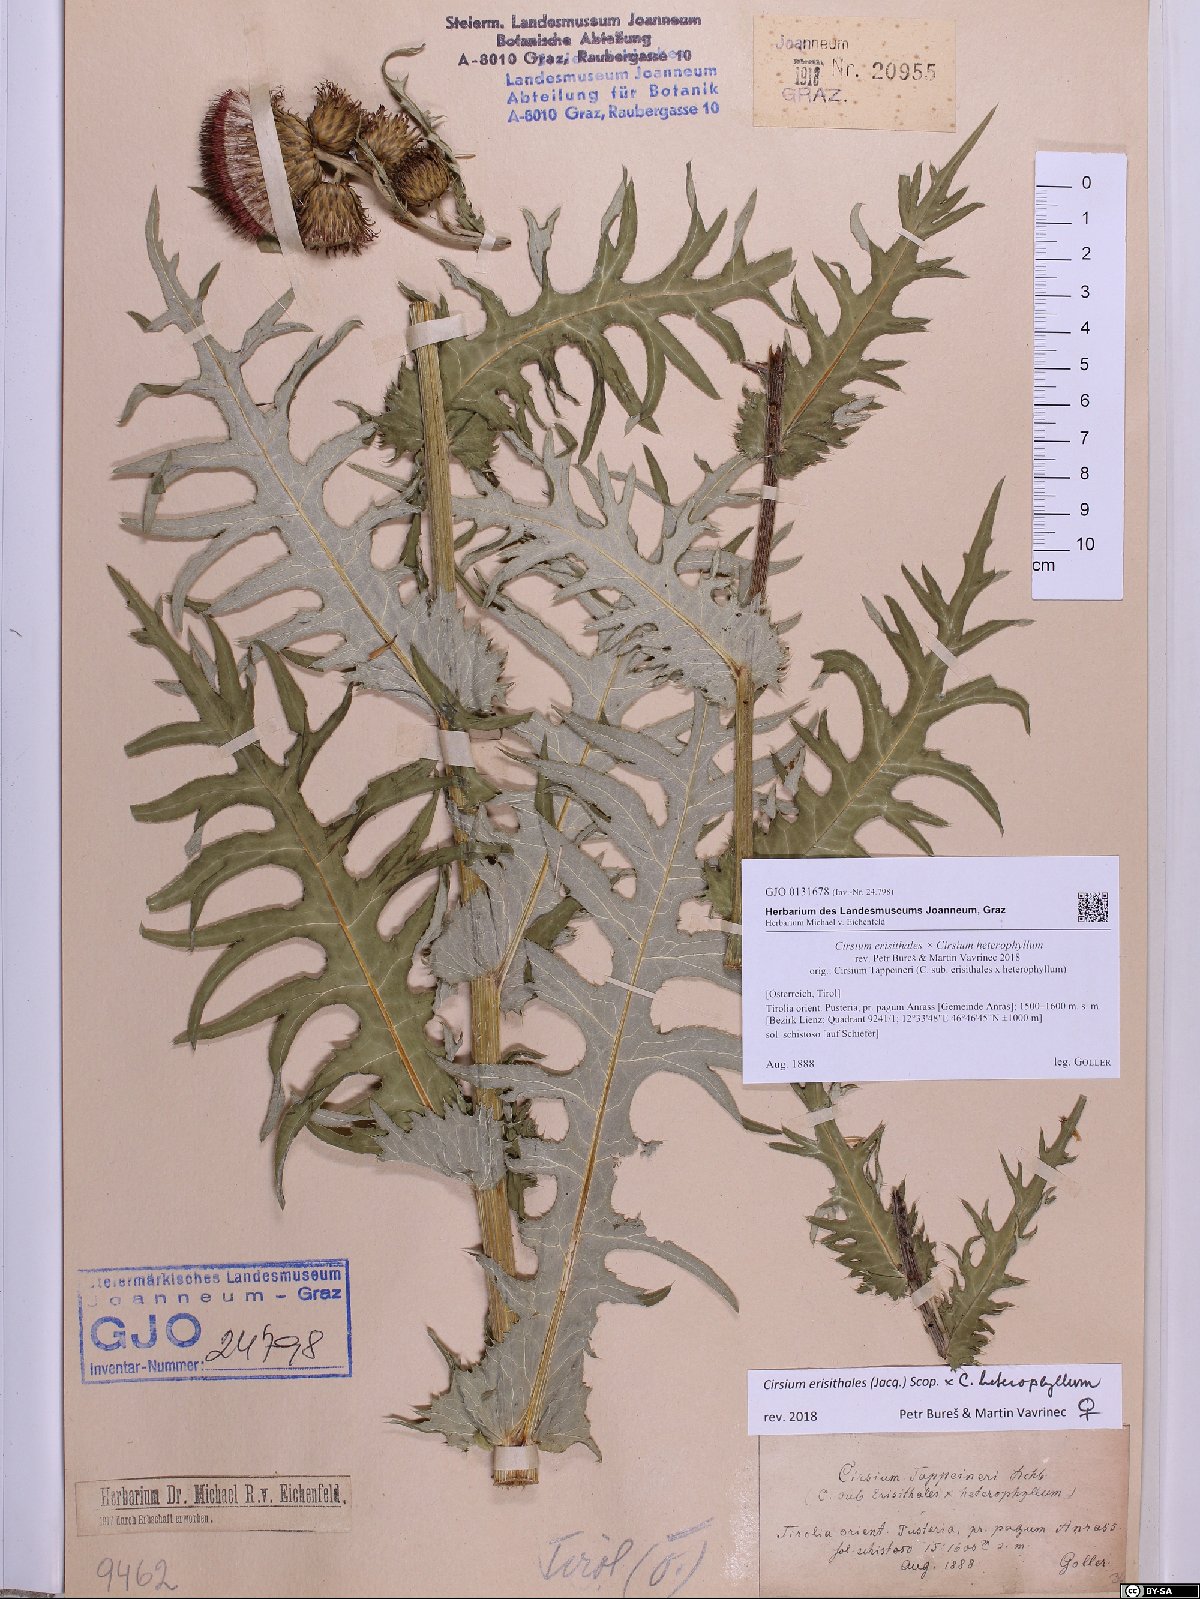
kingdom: Plantae
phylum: Tracheophyta
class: Magnoliopsida
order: Asterales
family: Asteraceae
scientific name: Asteraceae
